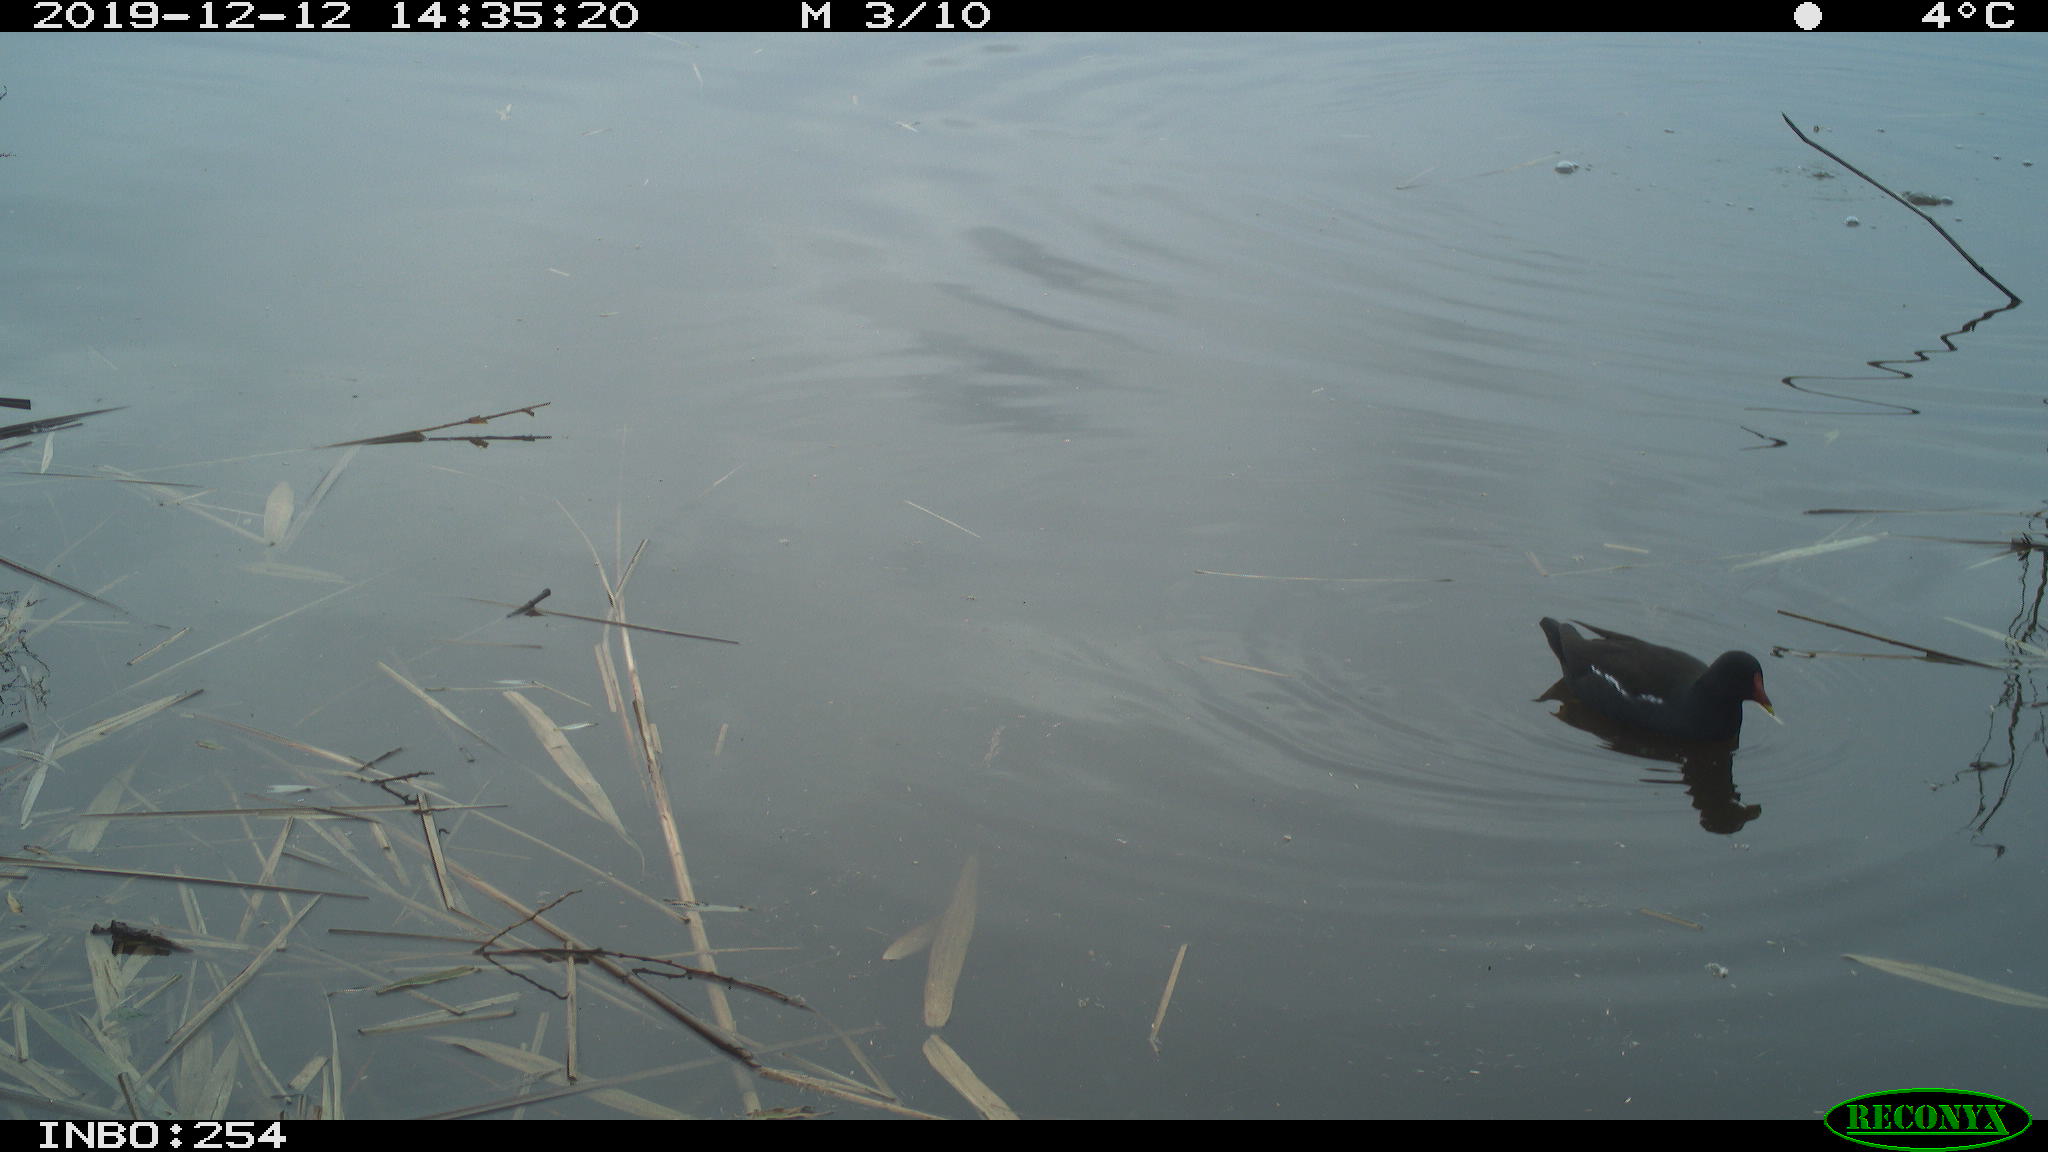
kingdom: Animalia
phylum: Chordata
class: Aves
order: Gruiformes
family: Rallidae
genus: Fulica
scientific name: Fulica atra
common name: Eurasian coot
